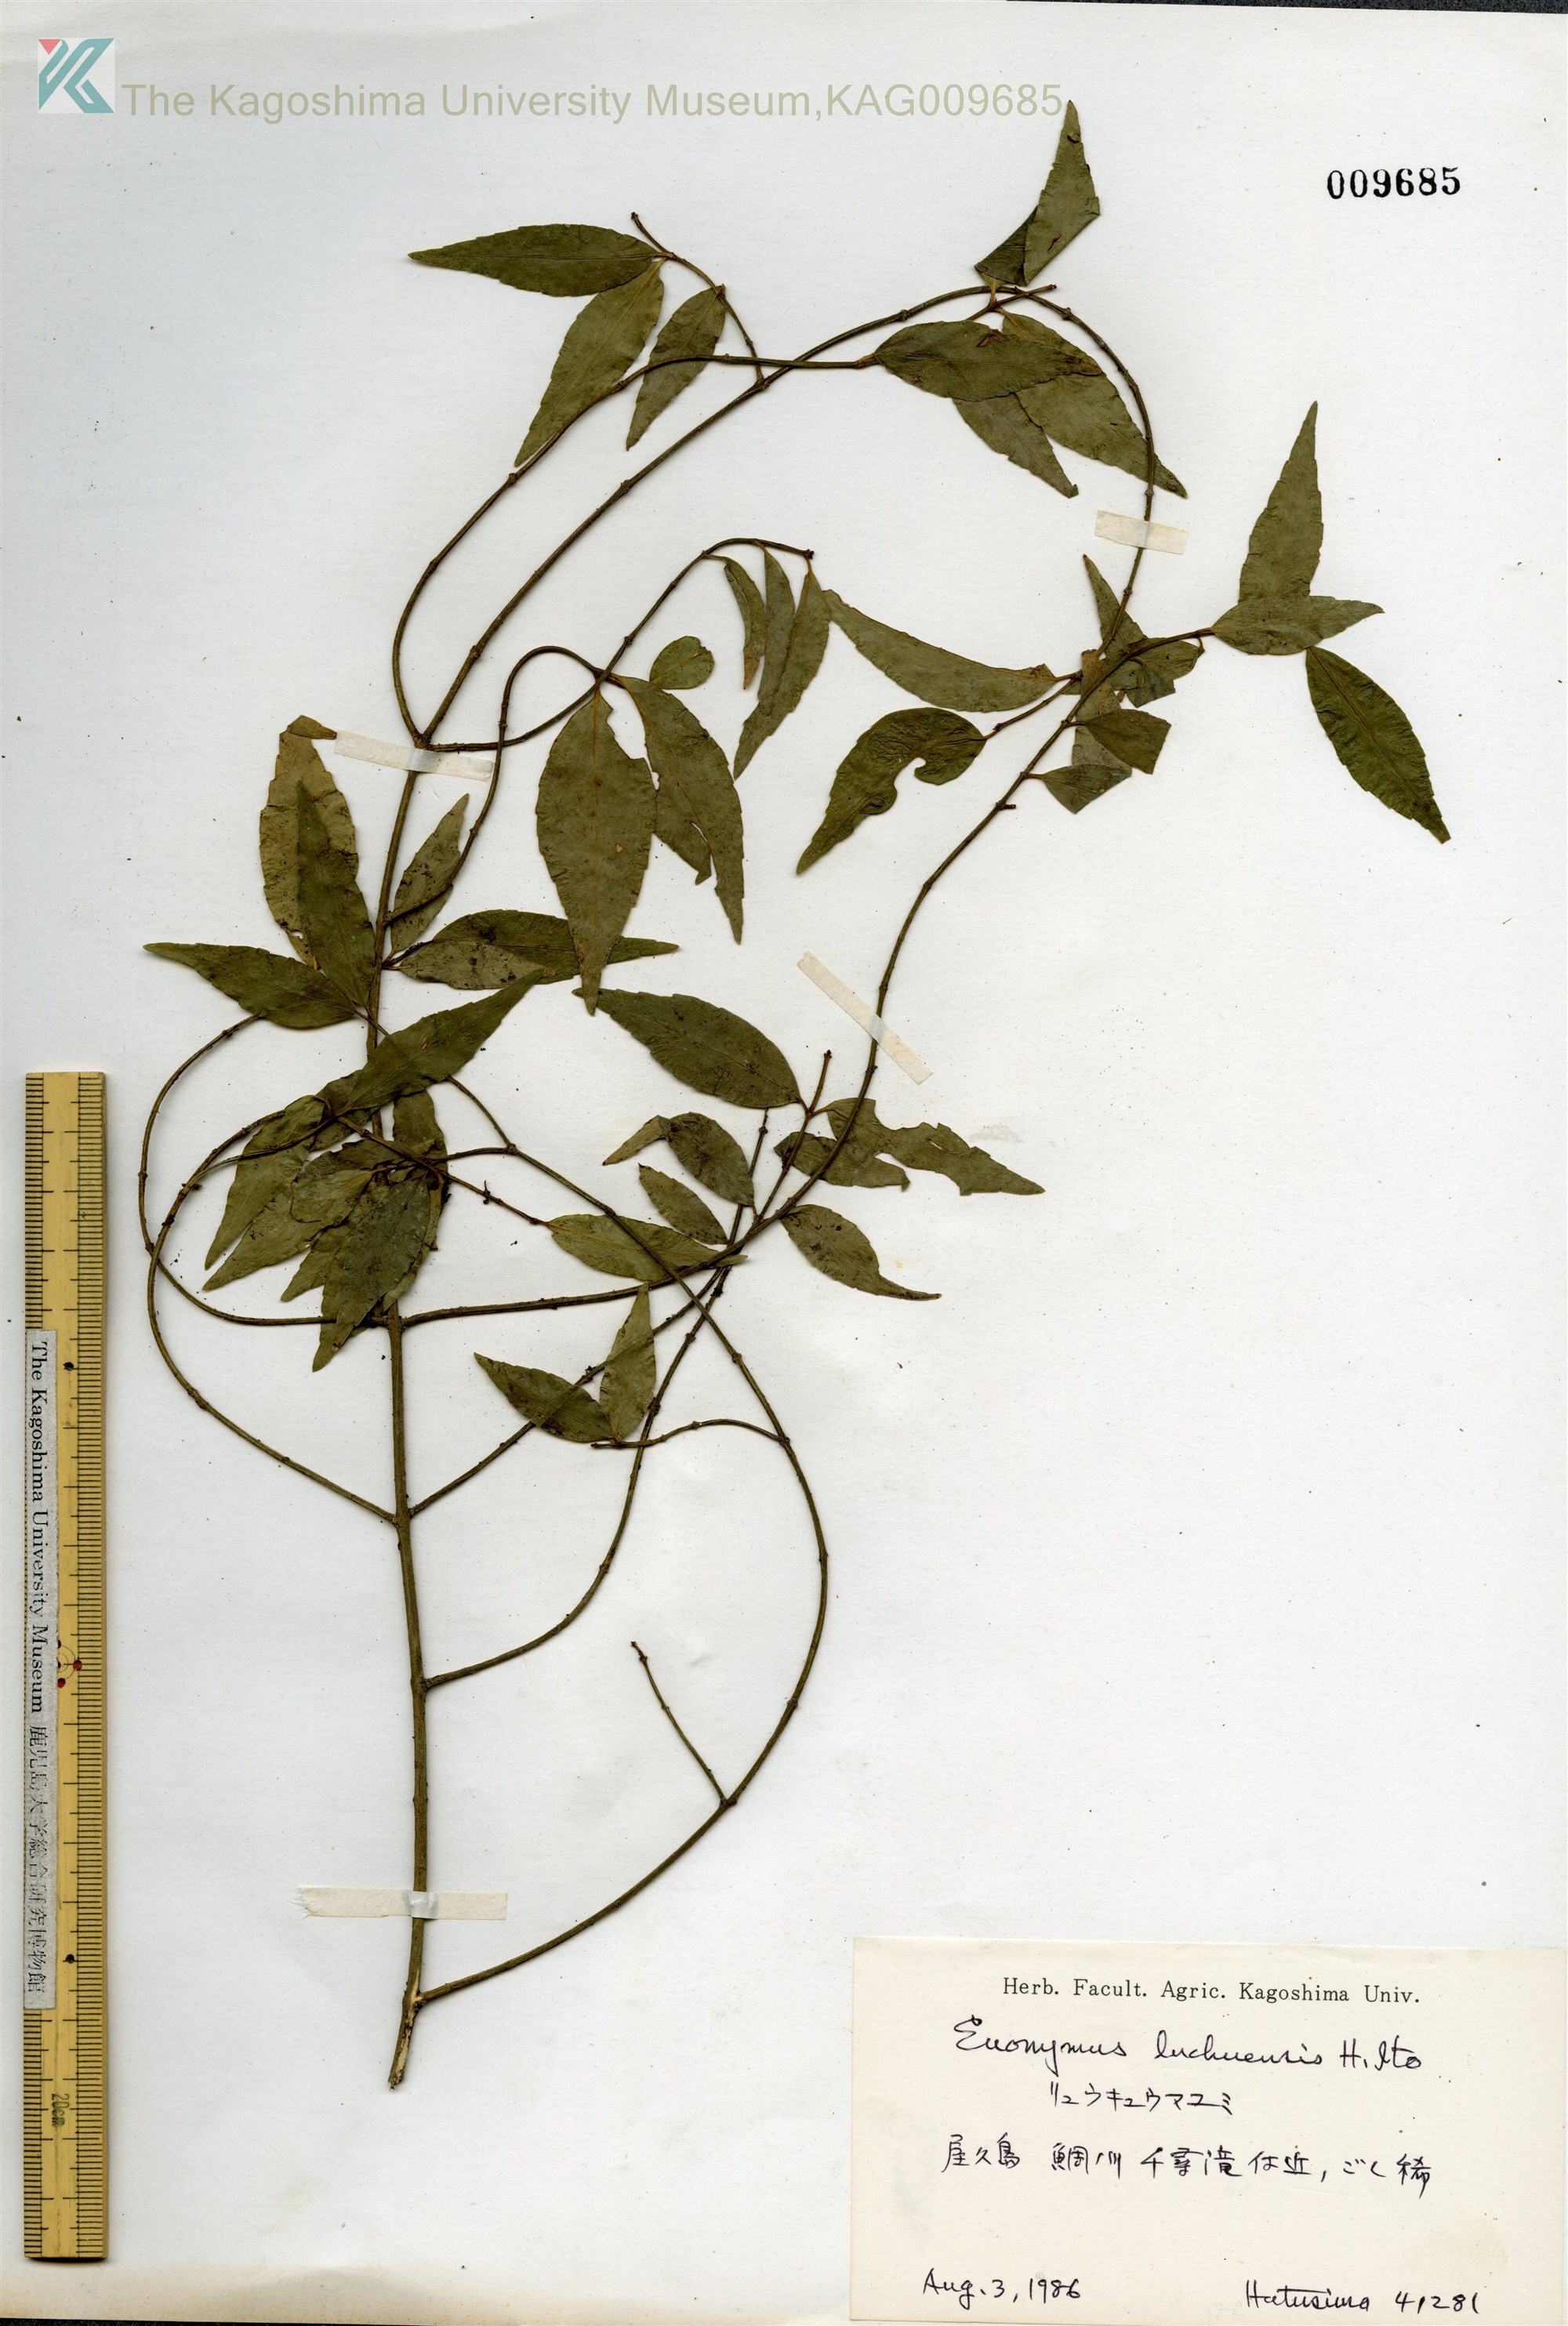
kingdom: Plantae
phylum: Tracheophyta
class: Magnoliopsida
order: Celastrales
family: Celastraceae
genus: Euonymus
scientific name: Euonymus lutchuensis
